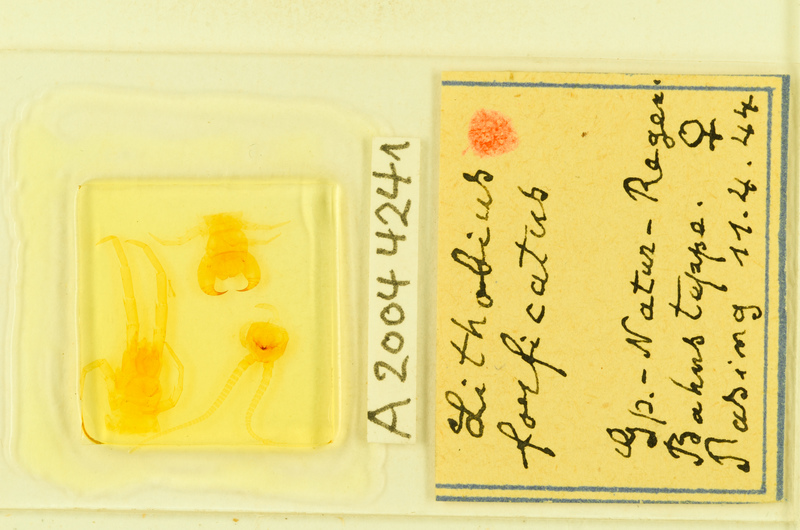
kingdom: Animalia
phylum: Arthropoda
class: Chilopoda
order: Lithobiomorpha
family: Lithobiidae
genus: Lithobius
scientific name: Lithobius forficatus
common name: Centipede
